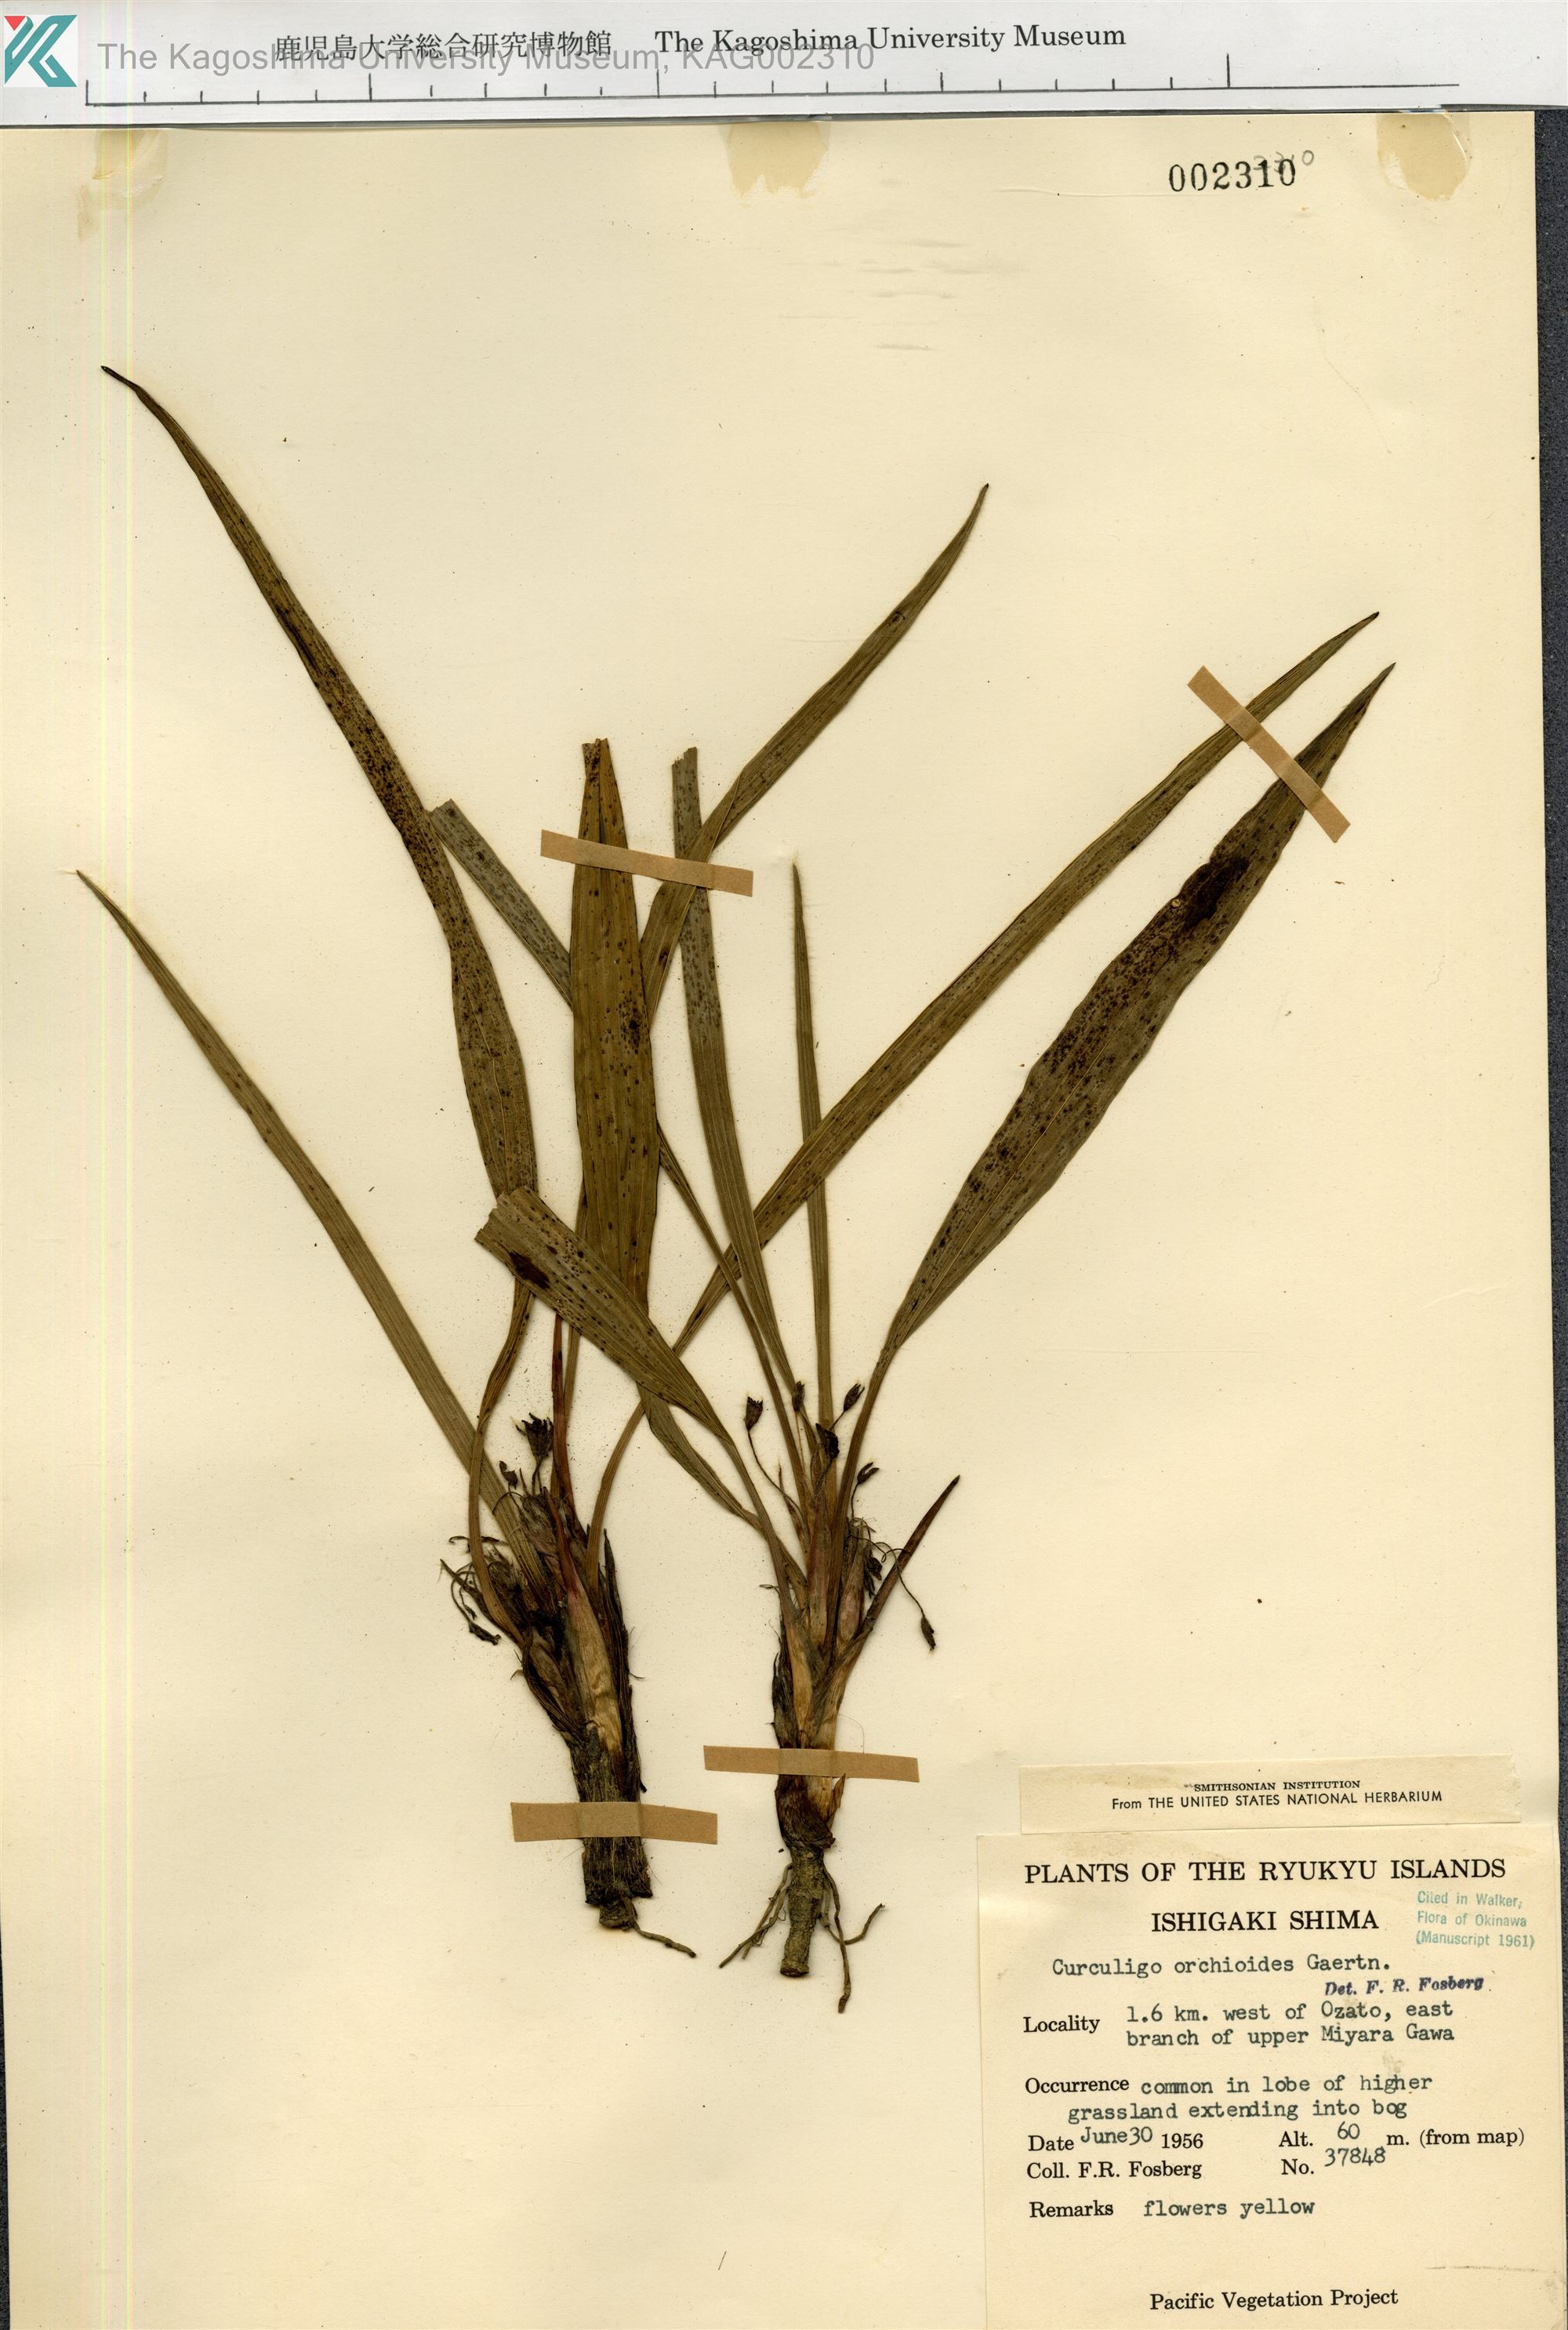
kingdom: Plantae
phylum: Tracheophyta
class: Liliopsida
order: Asparagales
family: Hypoxidaceae
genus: Curculigo
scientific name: Curculigo orchioides
